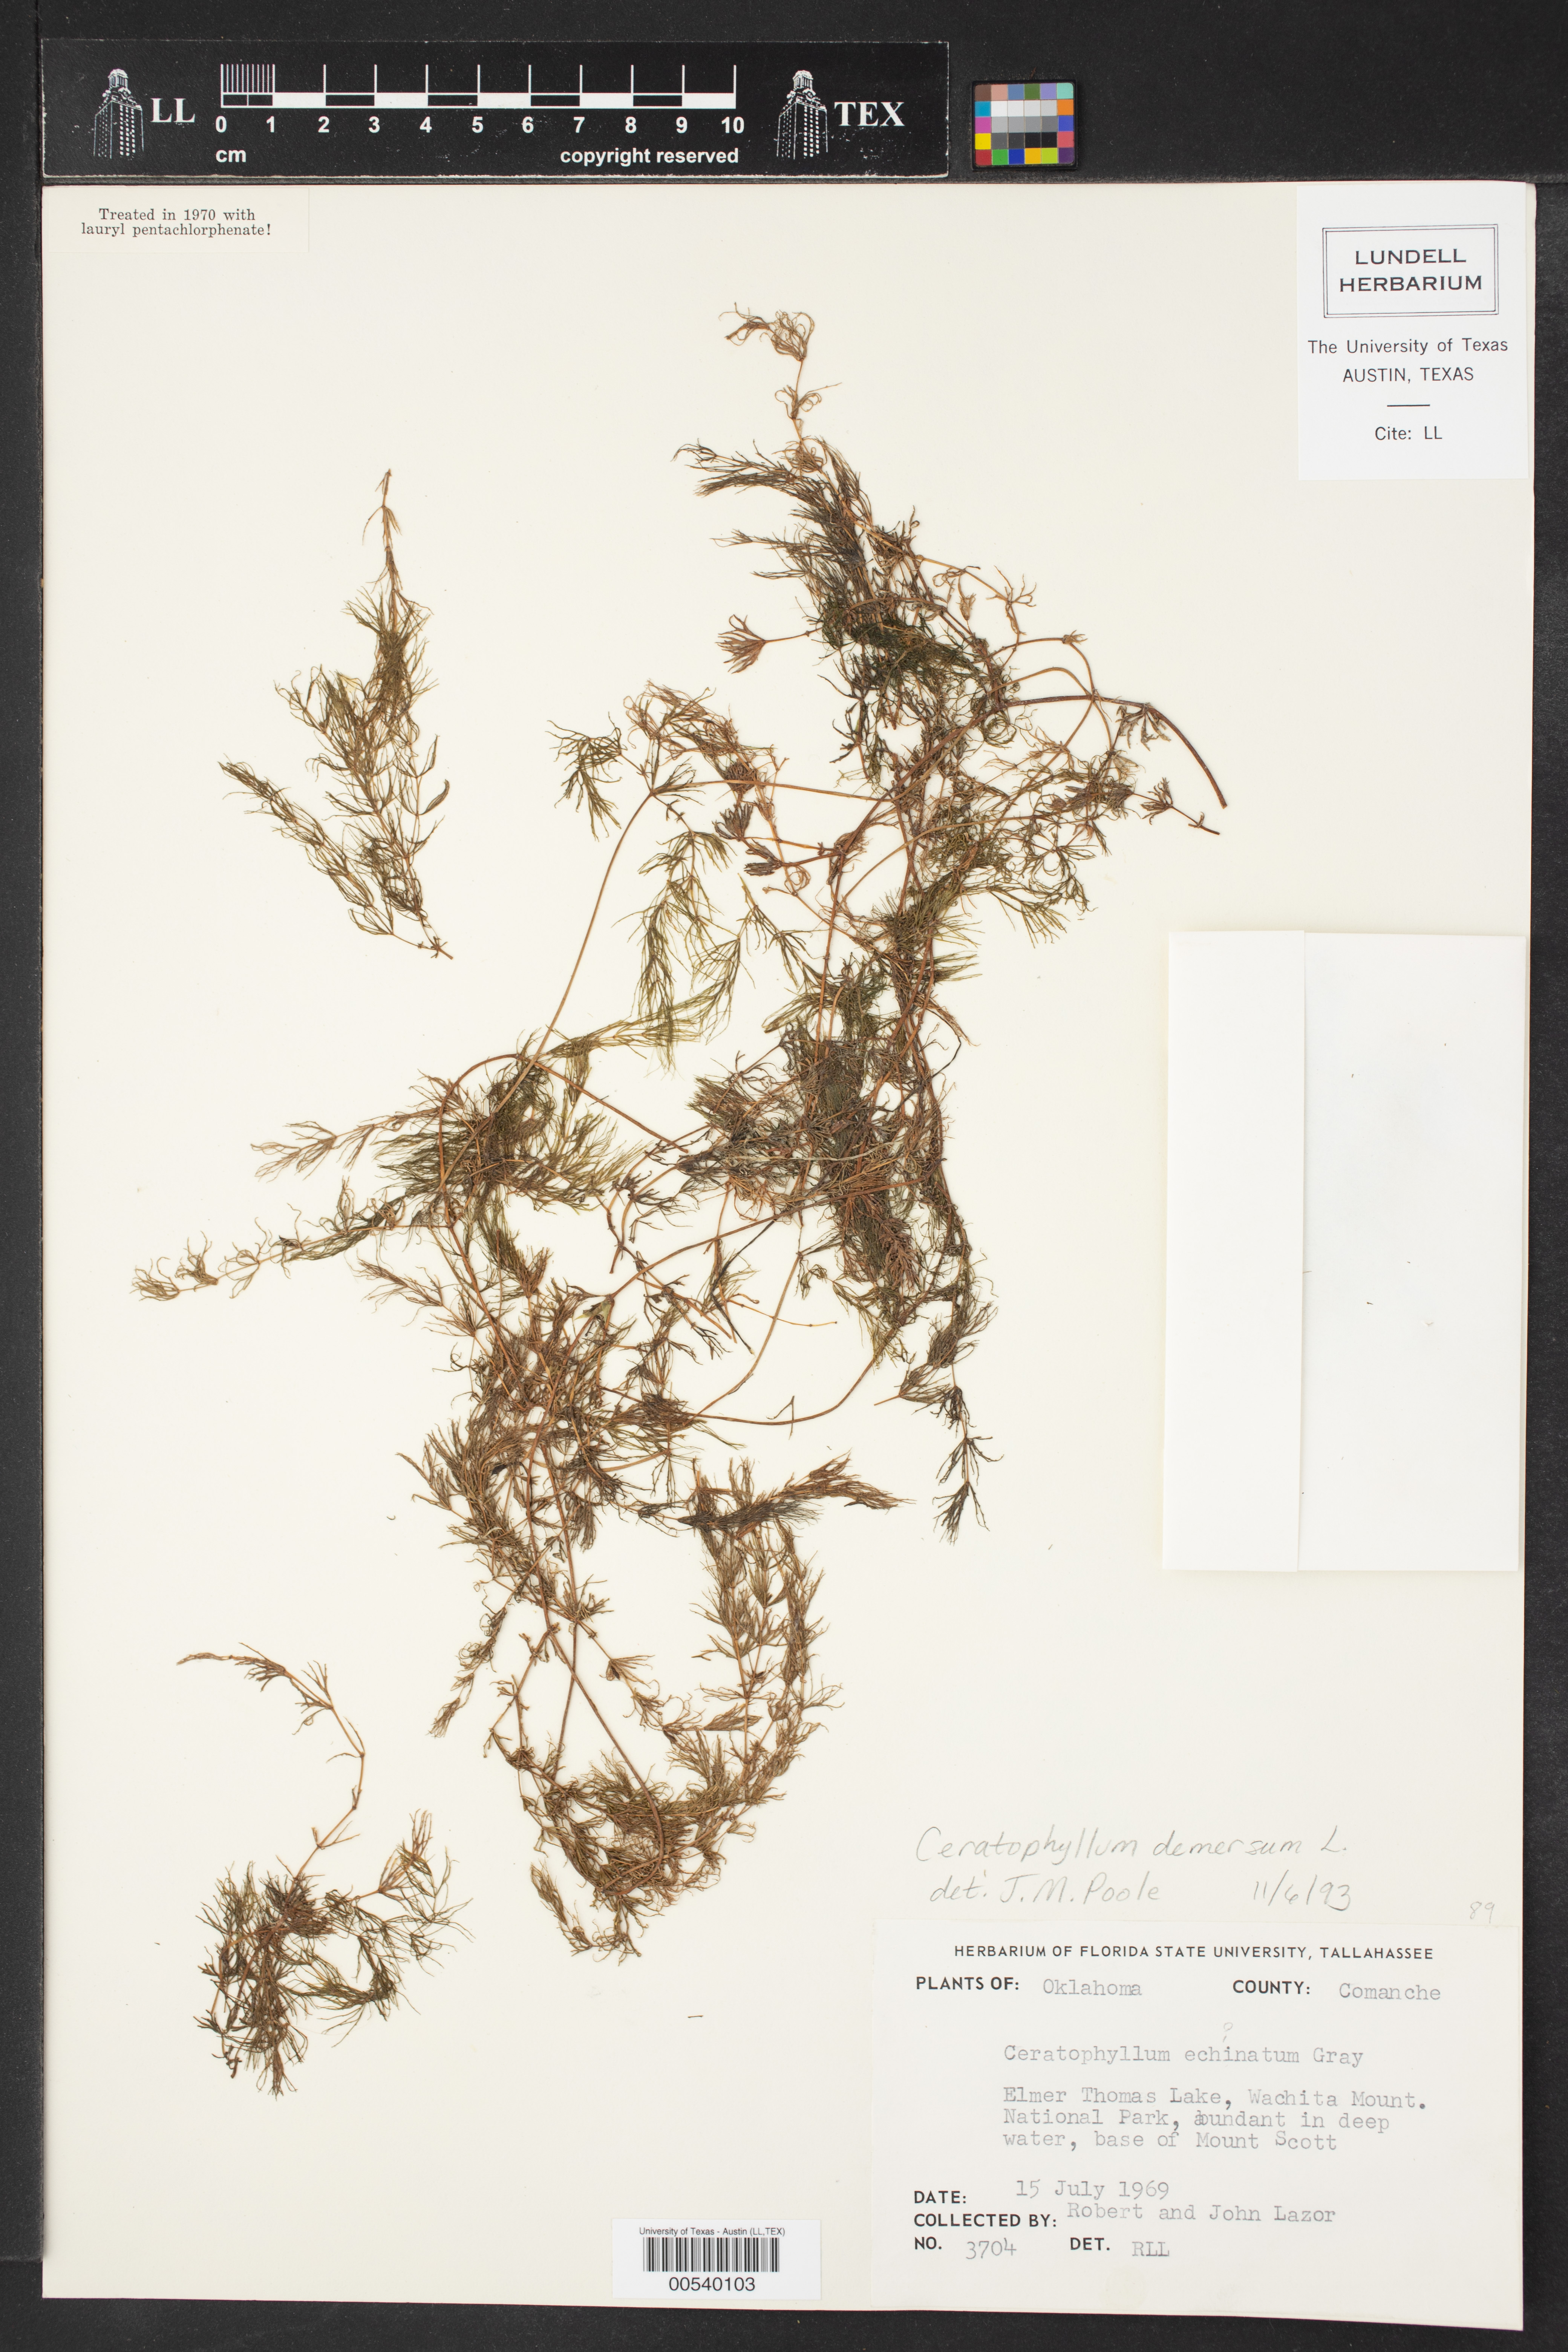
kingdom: Plantae
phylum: Tracheophyta
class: Magnoliopsida
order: Ceratophyllales
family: Ceratophyllaceae
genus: Ceratophyllum
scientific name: Ceratophyllum echinatum
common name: Prickly coontail
